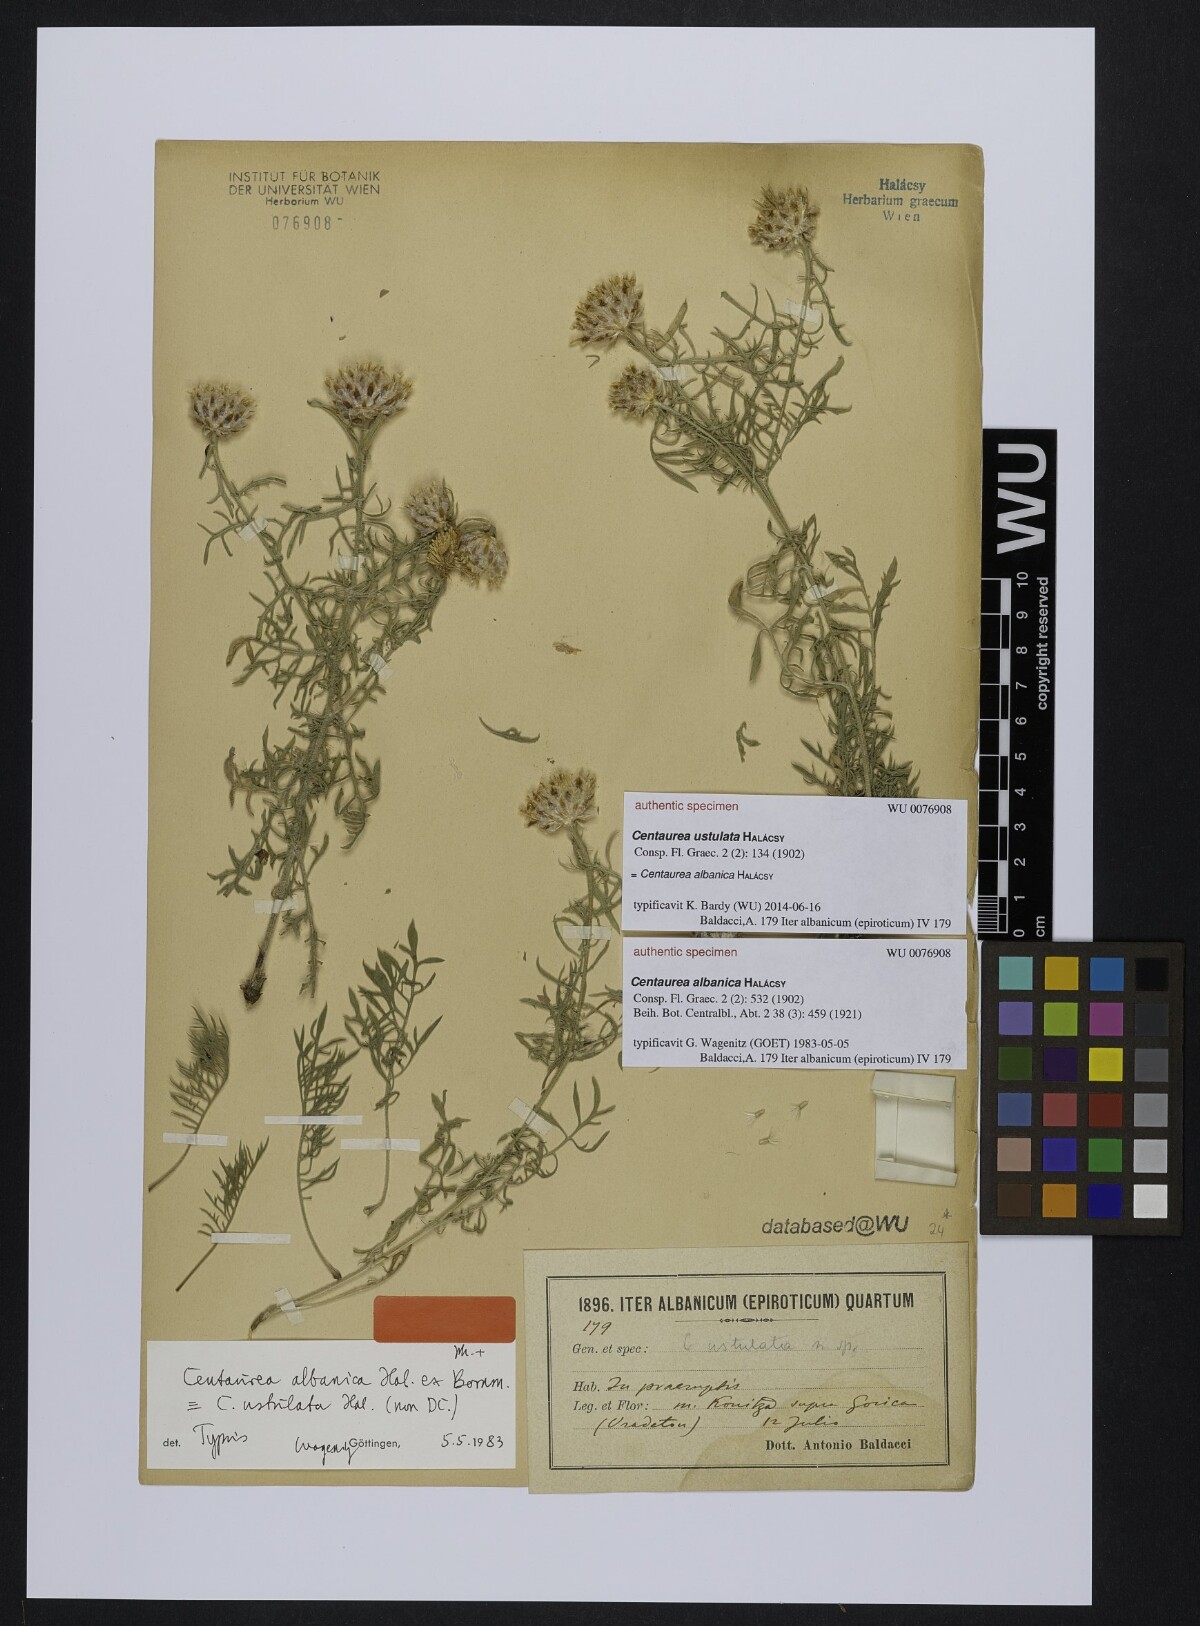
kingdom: Plantae
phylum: Tracheophyta
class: Magnoliopsida
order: Asterales
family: Asteraceae
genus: Centaurea
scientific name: Centaurea albanica
